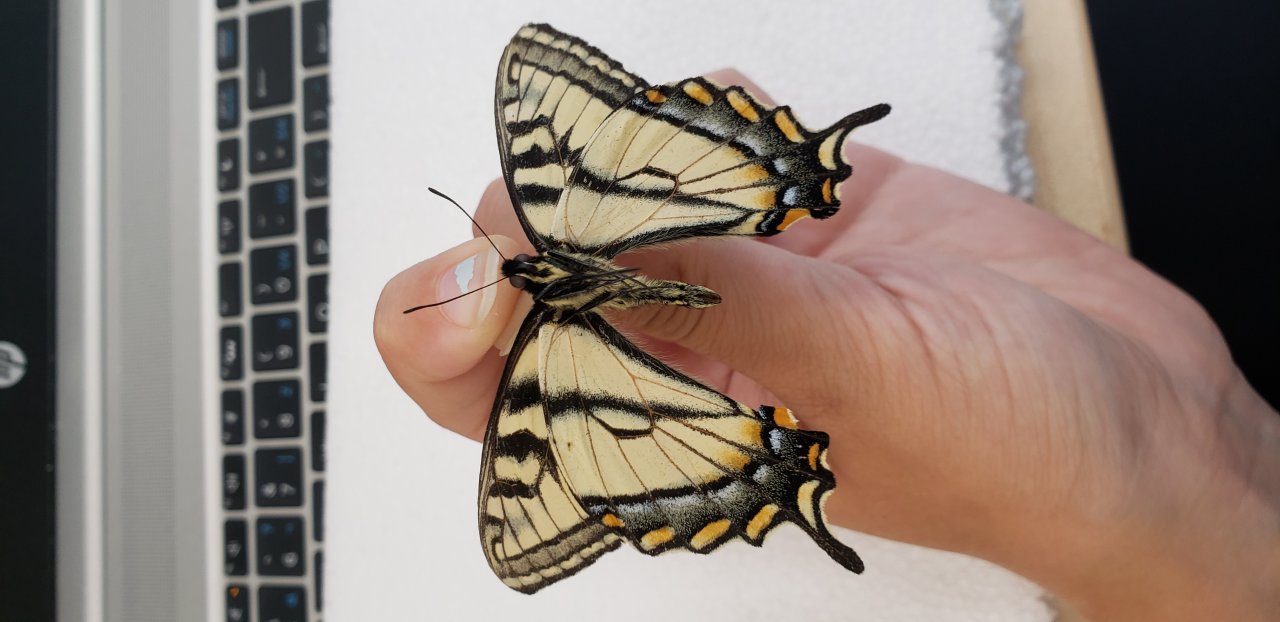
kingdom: Animalia
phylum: Arthropoda
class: Insecta
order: Lepidoptera
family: Papilionidae
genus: Pterourus
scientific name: Pterourus canadensis
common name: Canadian Tiger Swallowtail
